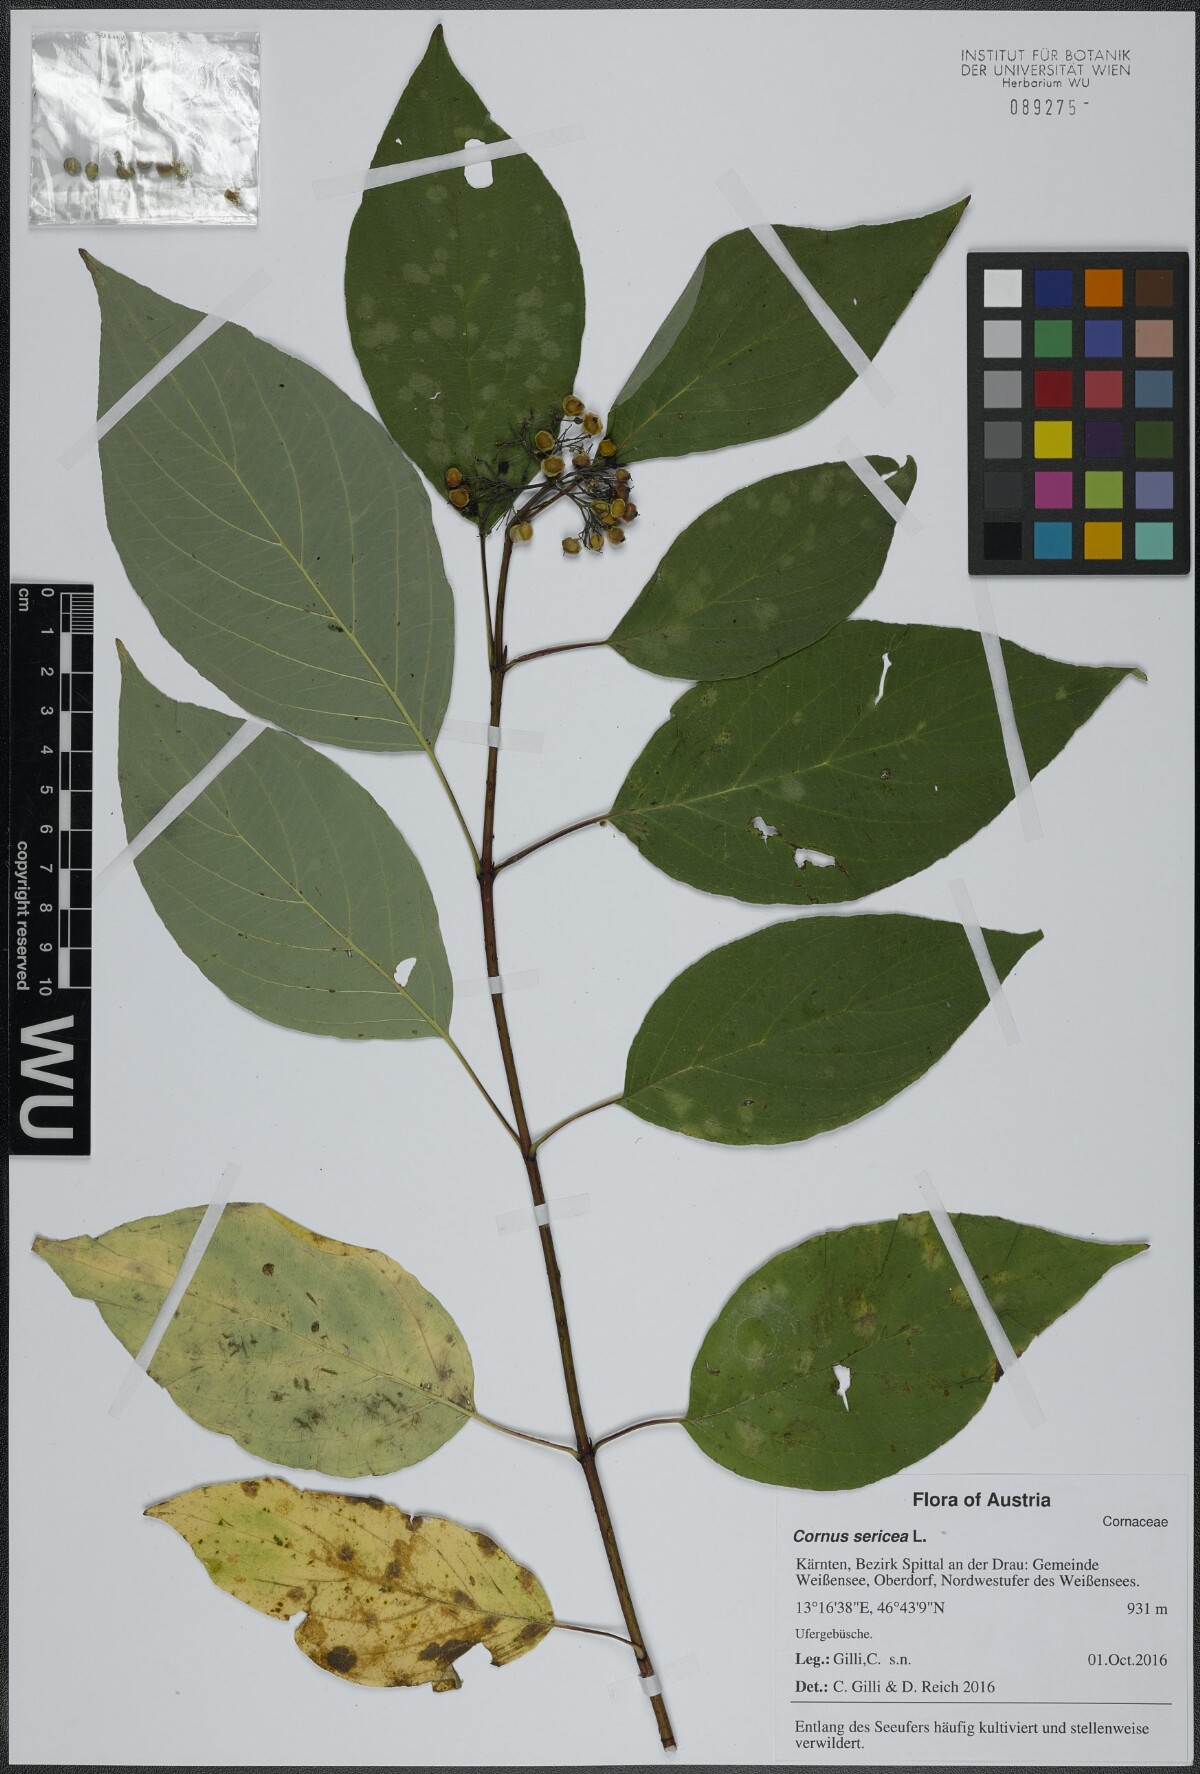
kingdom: Plantae
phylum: Tracheophyta
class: Magnoliopsida
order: Cornales
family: Cornaceae
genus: Cornus
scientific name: Cornus sericea
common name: Red-osier dogwood
